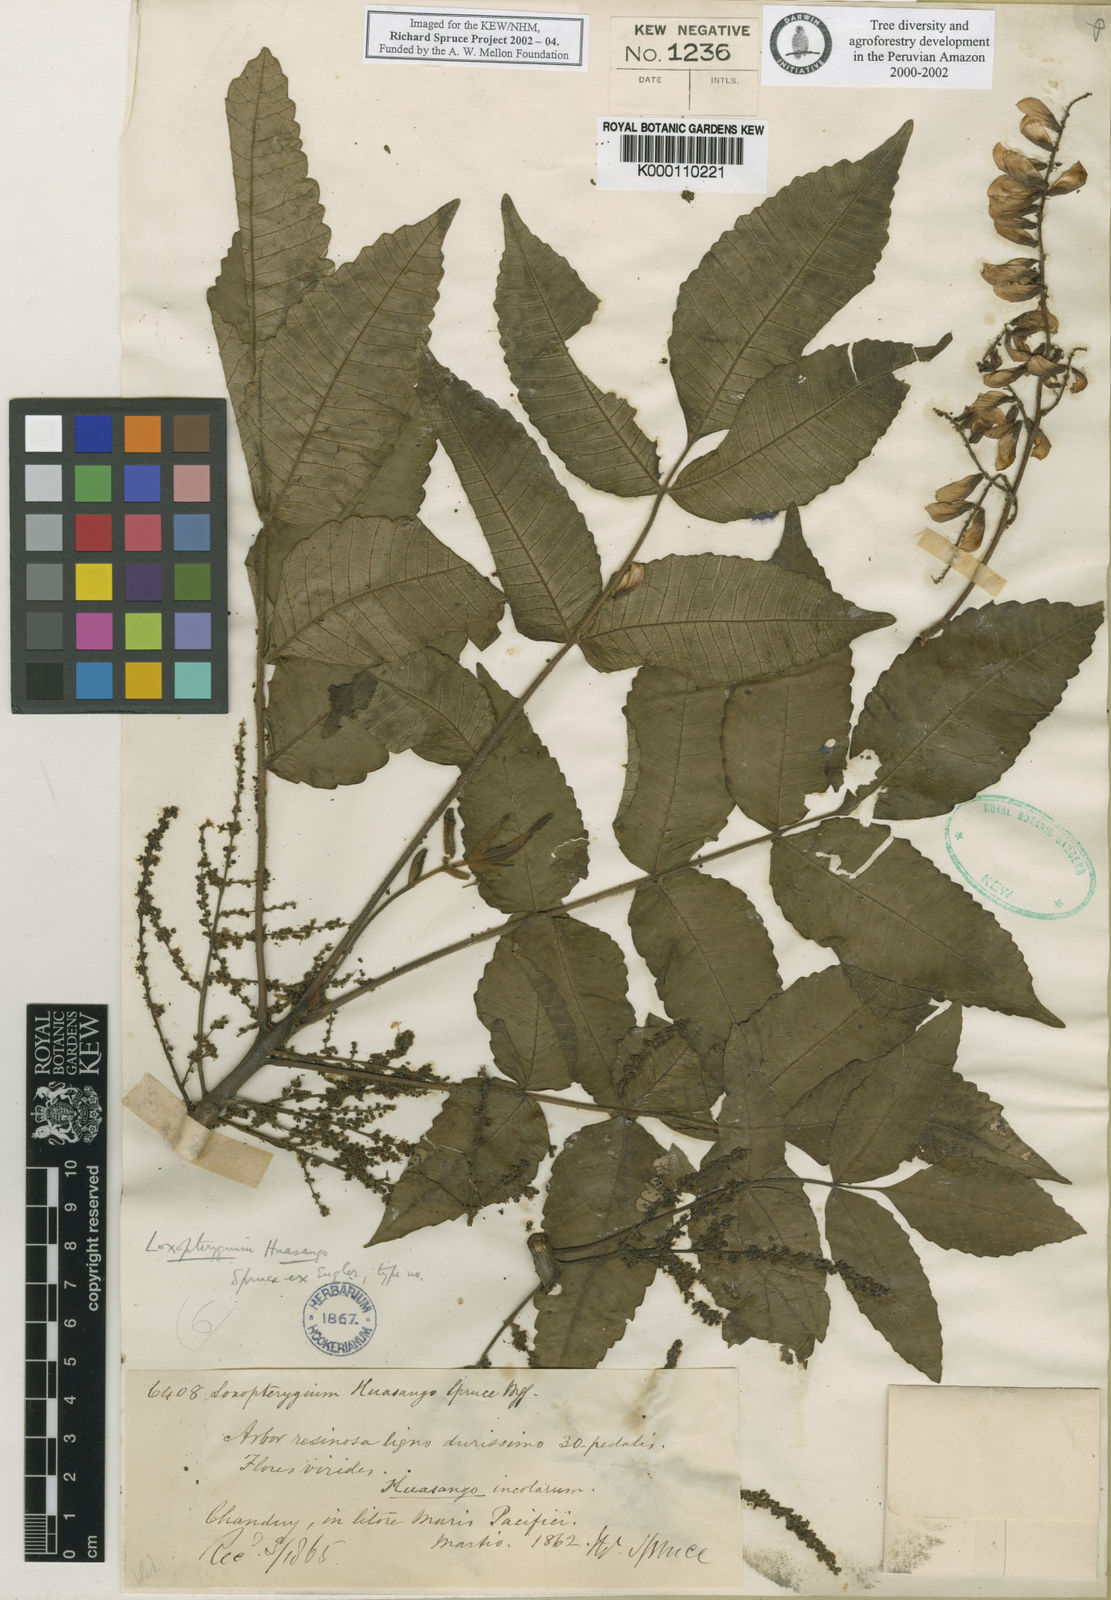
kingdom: Plantae
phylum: Tracheophyta
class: Magnoliopsida
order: Sapindales
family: Anacardiaceae
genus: Loxopterygium
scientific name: Loxopterygium huasango
